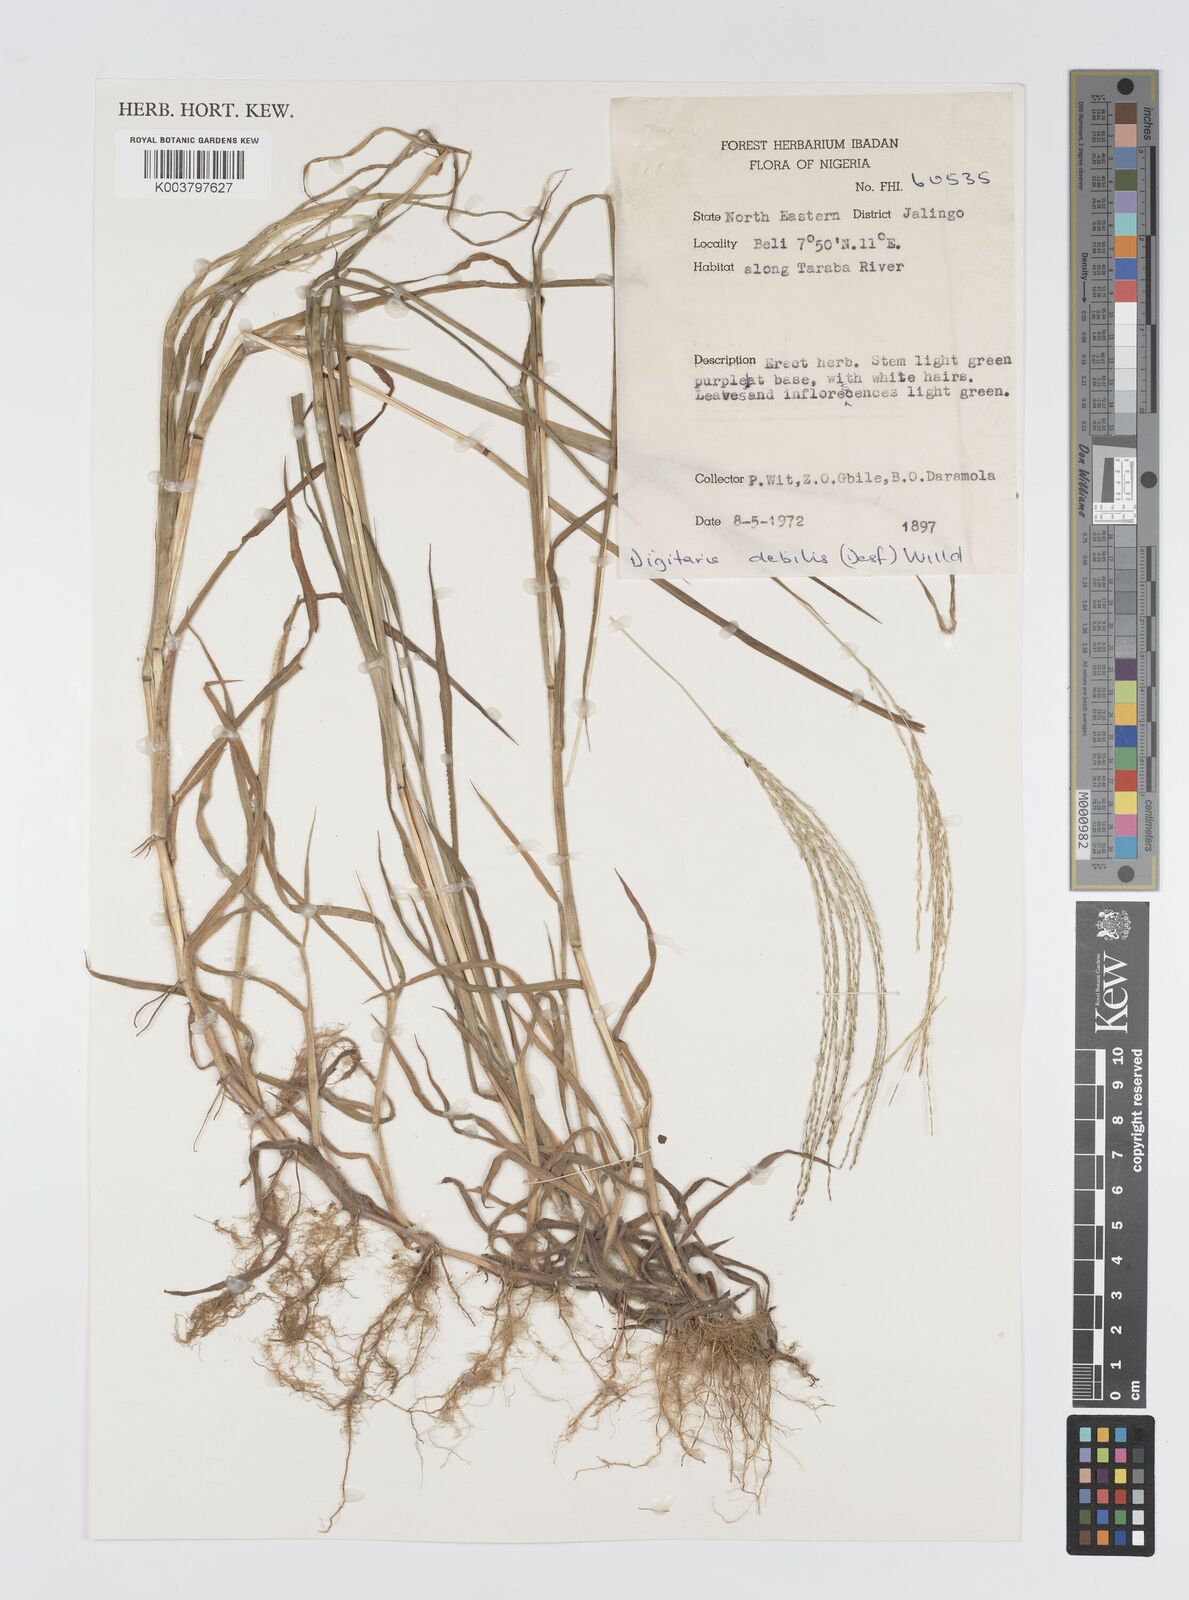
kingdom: Plantae
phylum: Tracheophyta
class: Liliopsida
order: Poales
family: Poaceae
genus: Digitaria
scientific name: Digitaria debilis
